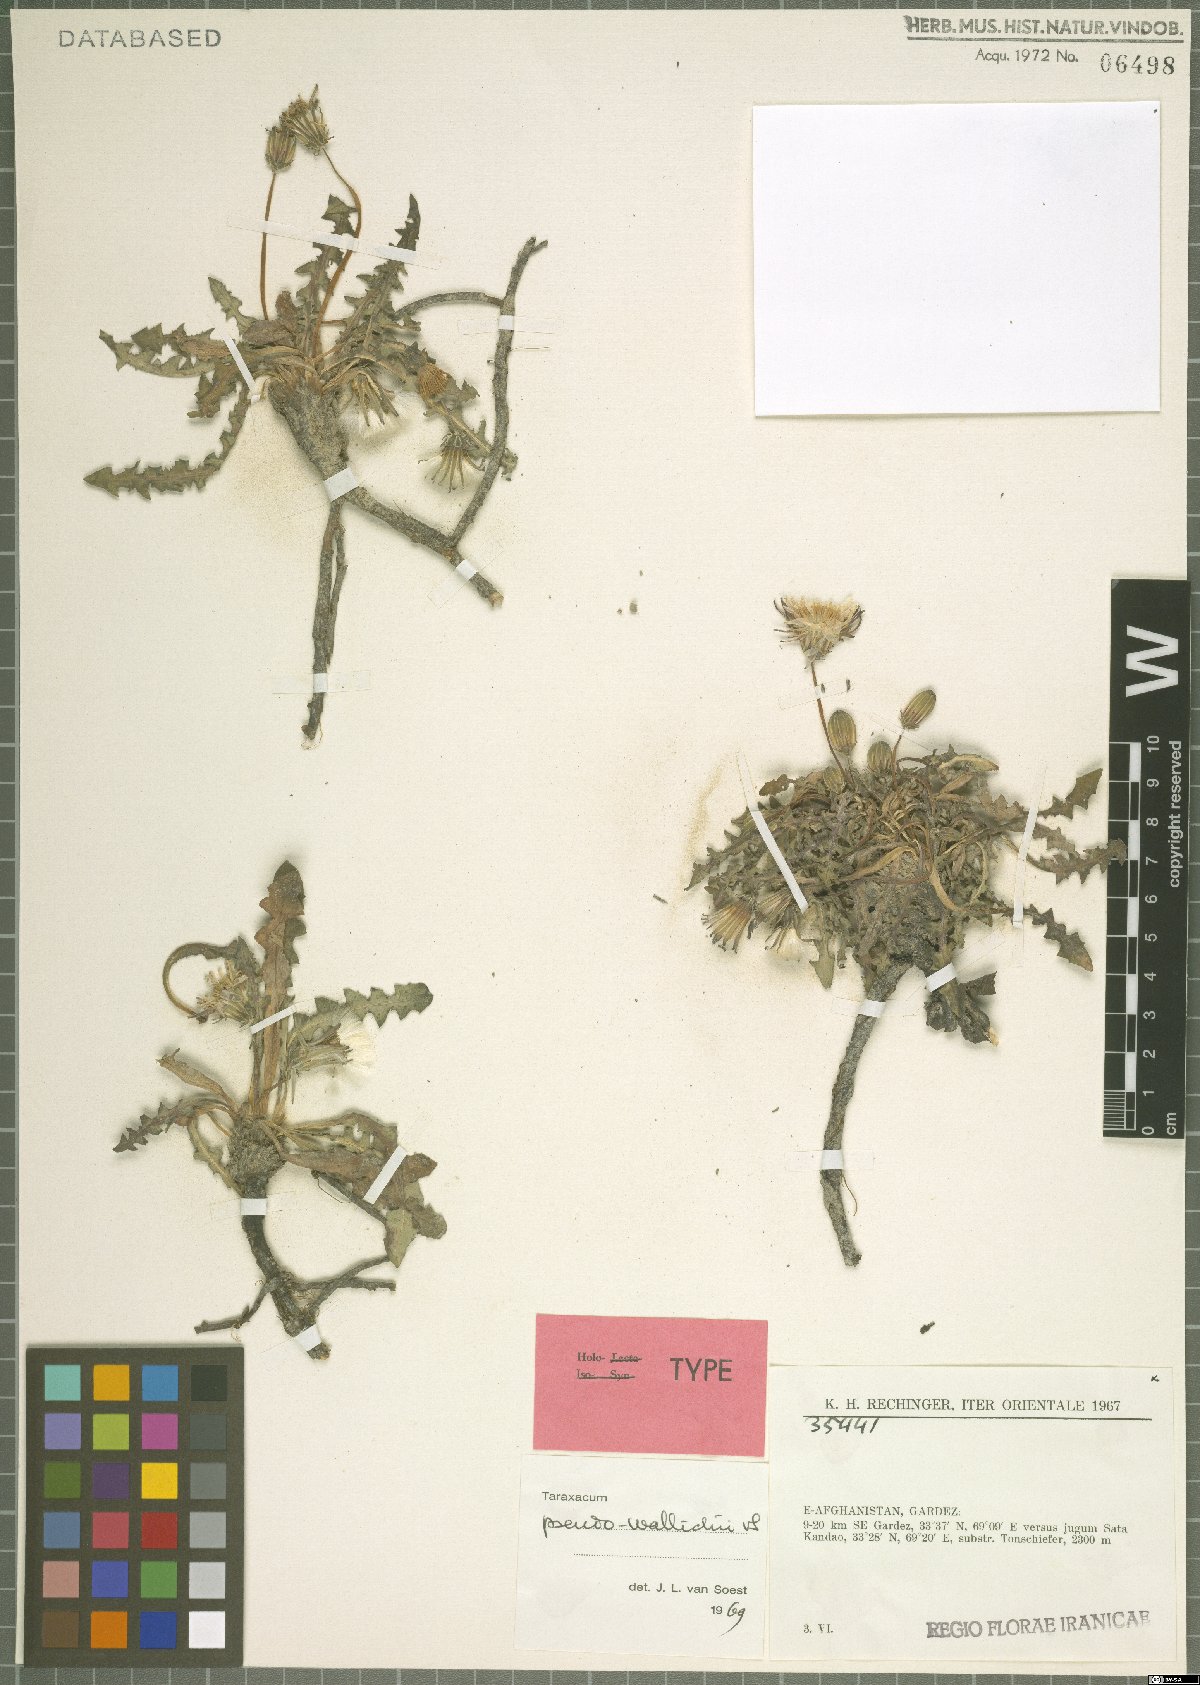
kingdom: Plantae
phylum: Tracheophyta
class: Magnoliopsida
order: Asterales
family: Asteraceae
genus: Taraxacum
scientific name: Taraxacum pseudowallichii
